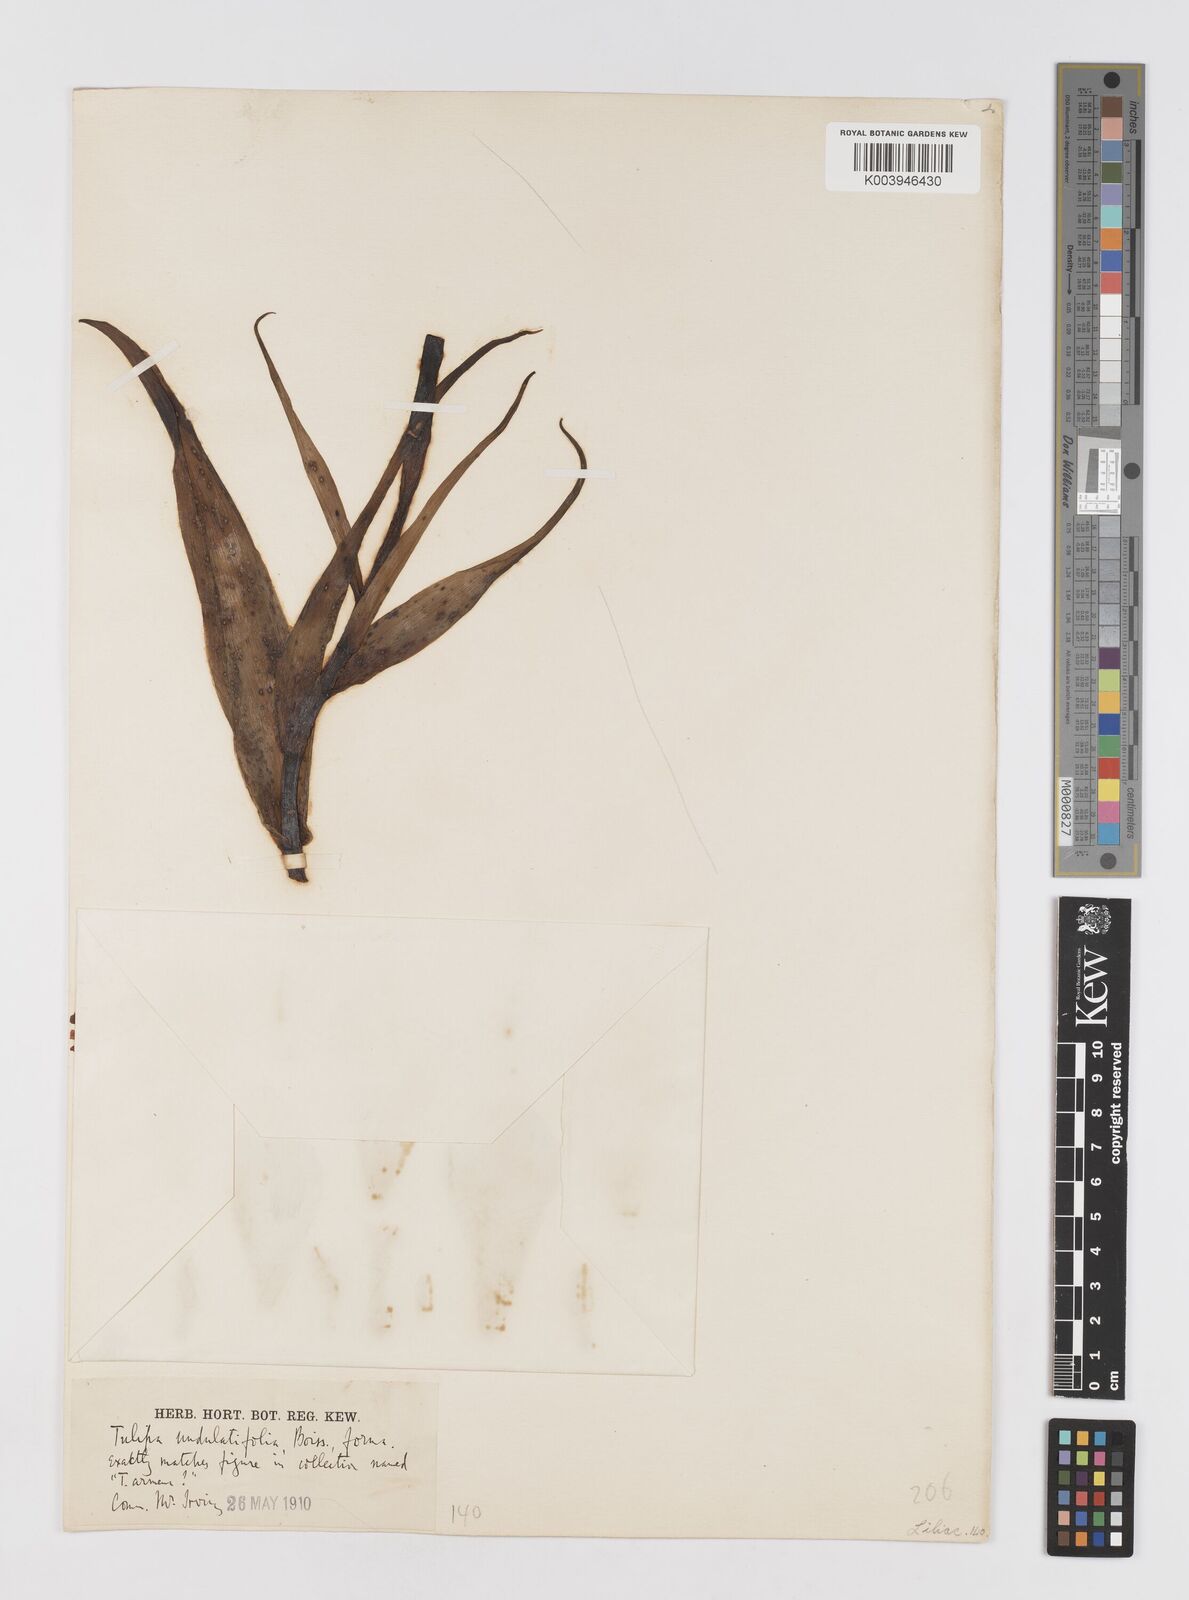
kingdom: Plantae
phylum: Tracheophyta
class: Liliopsida
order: Liliales
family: Liliaceae
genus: Tulipa
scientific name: Tulipa
